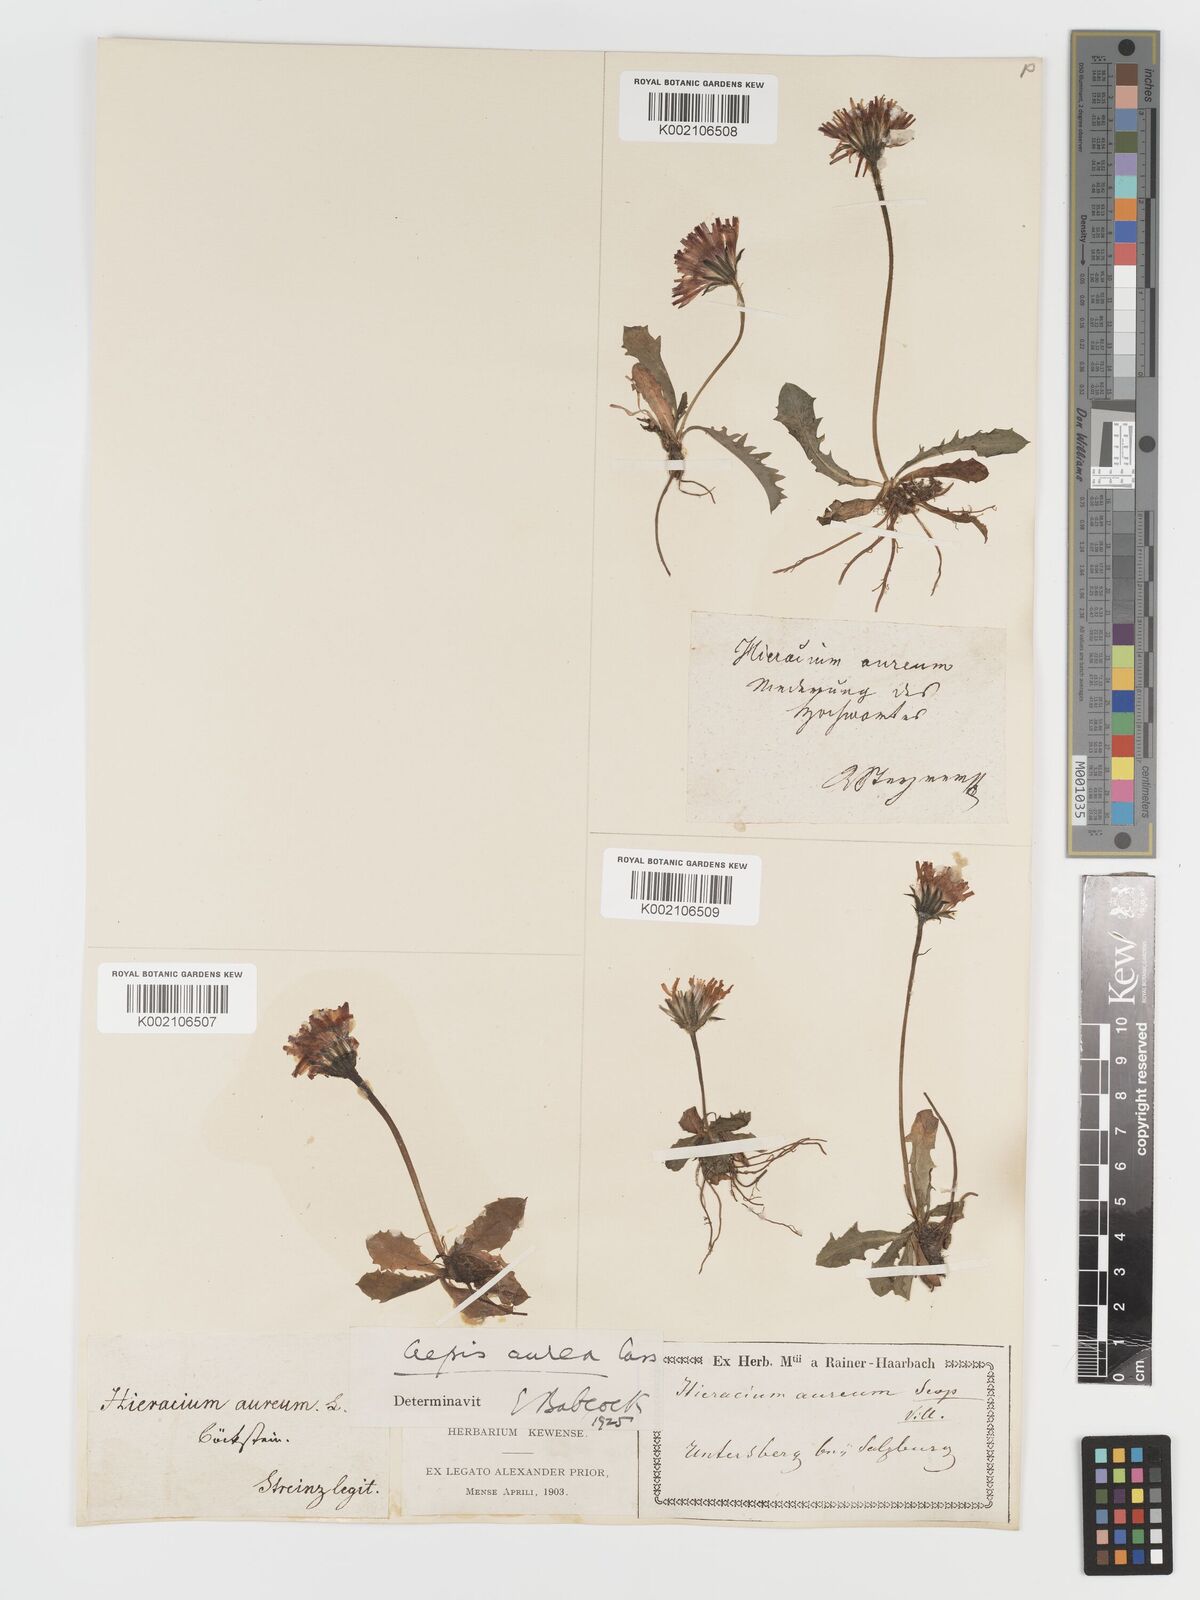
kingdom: Plantae
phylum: Tracheophyta
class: Magnoliopsida
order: Asterales
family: Asteraceae
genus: Crepis
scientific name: Crepis aurea
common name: Golden hawk's-beard
